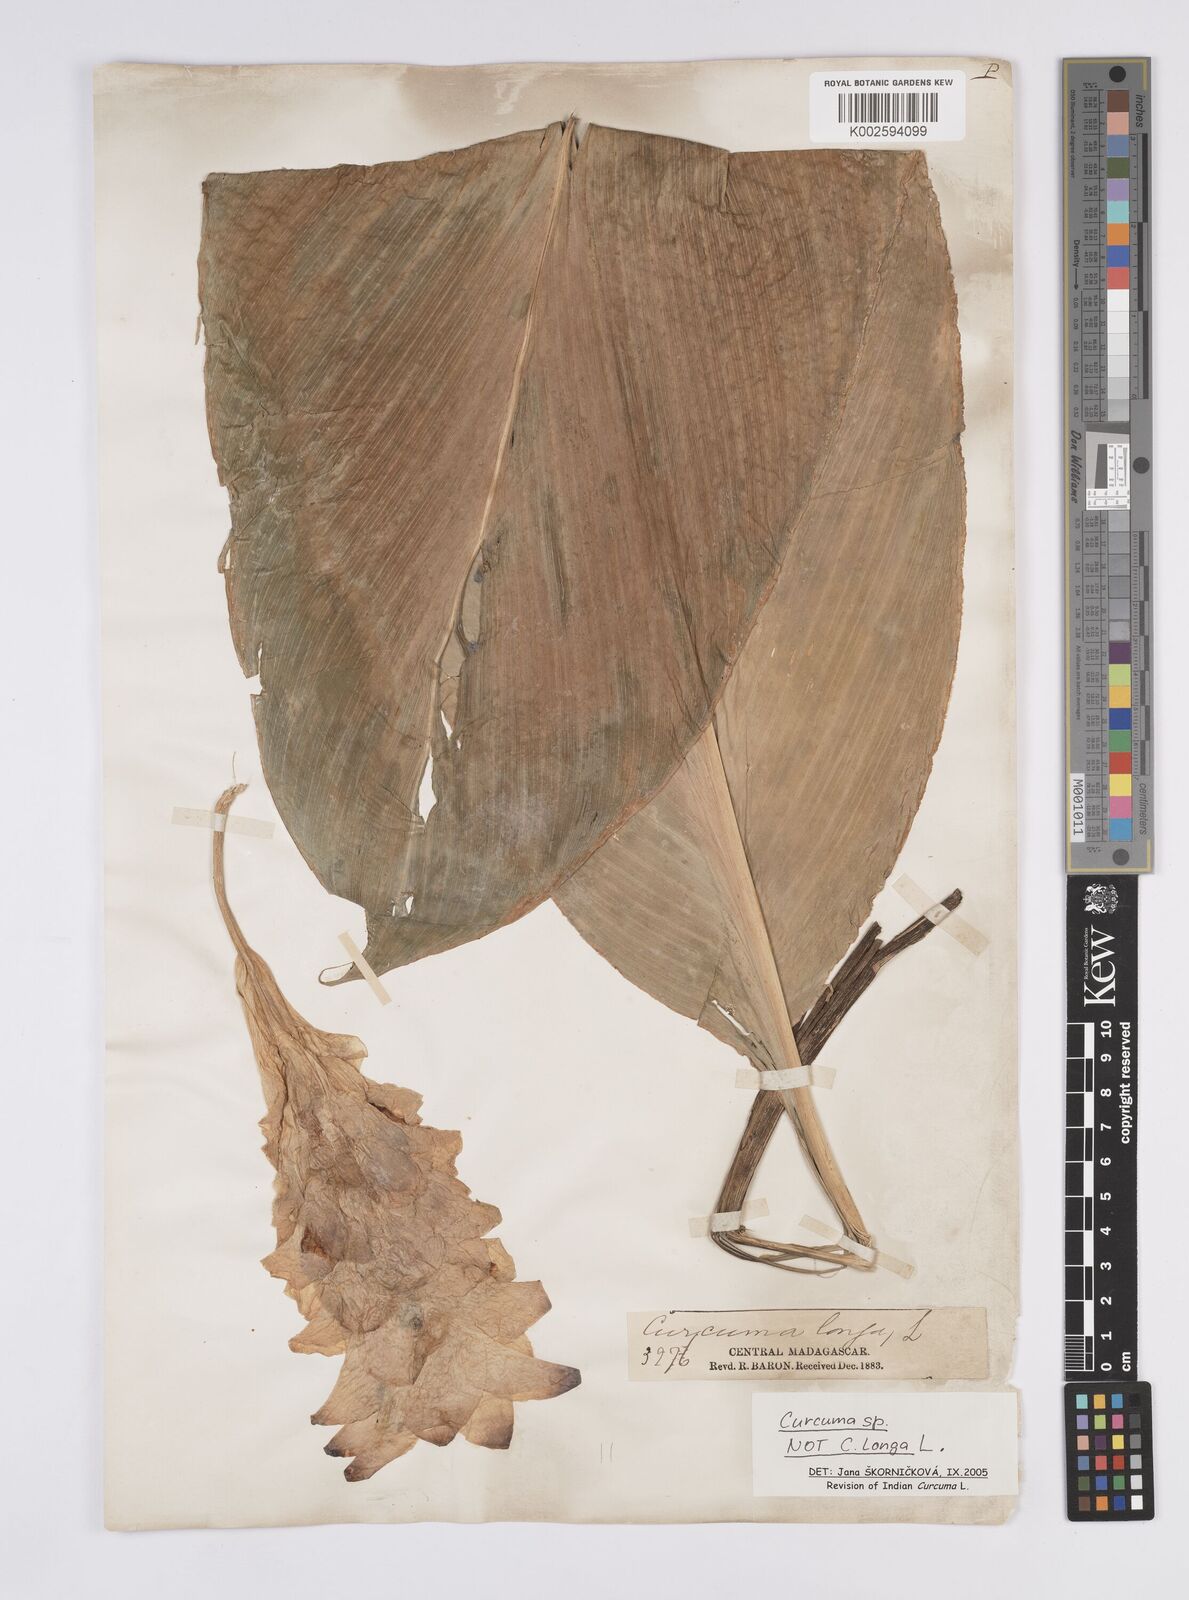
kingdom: Plantae
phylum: Tracheophyta
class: Liliopsida
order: Zingiberales
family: Zingiberaceae
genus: Curcuma
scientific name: Curcuma
